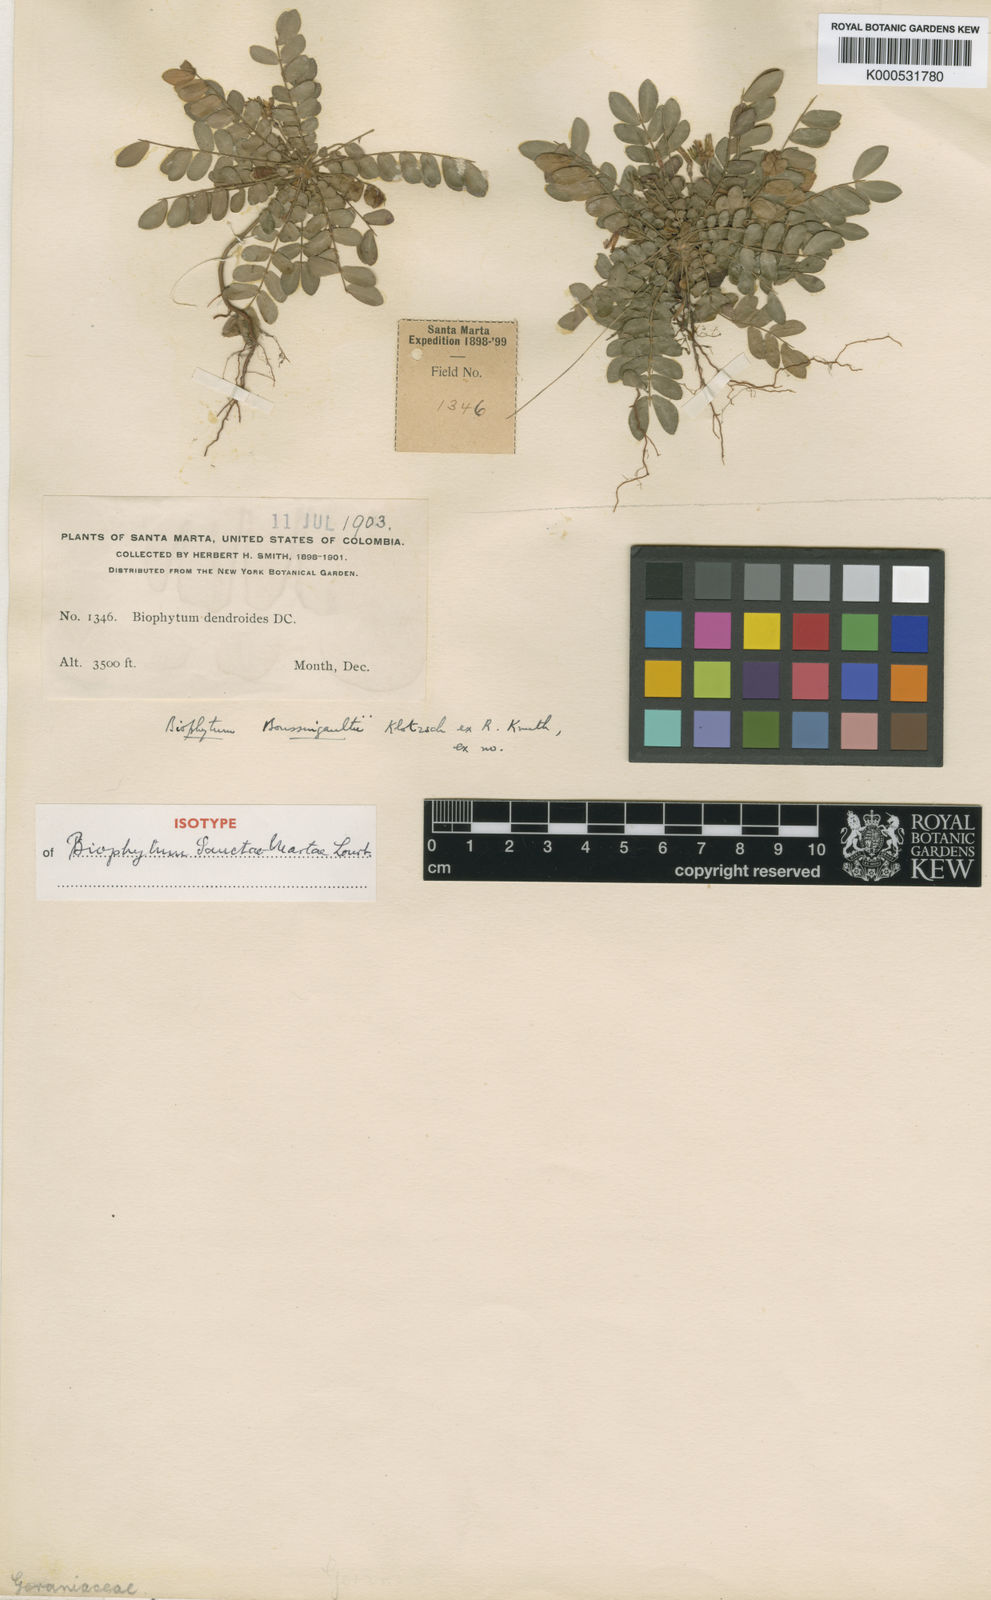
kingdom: Plantae
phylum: Tracheophyta
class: Magnoliopsida
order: Oxalidales
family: Oxalidaceae
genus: Biophytum
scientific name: Biophytum
